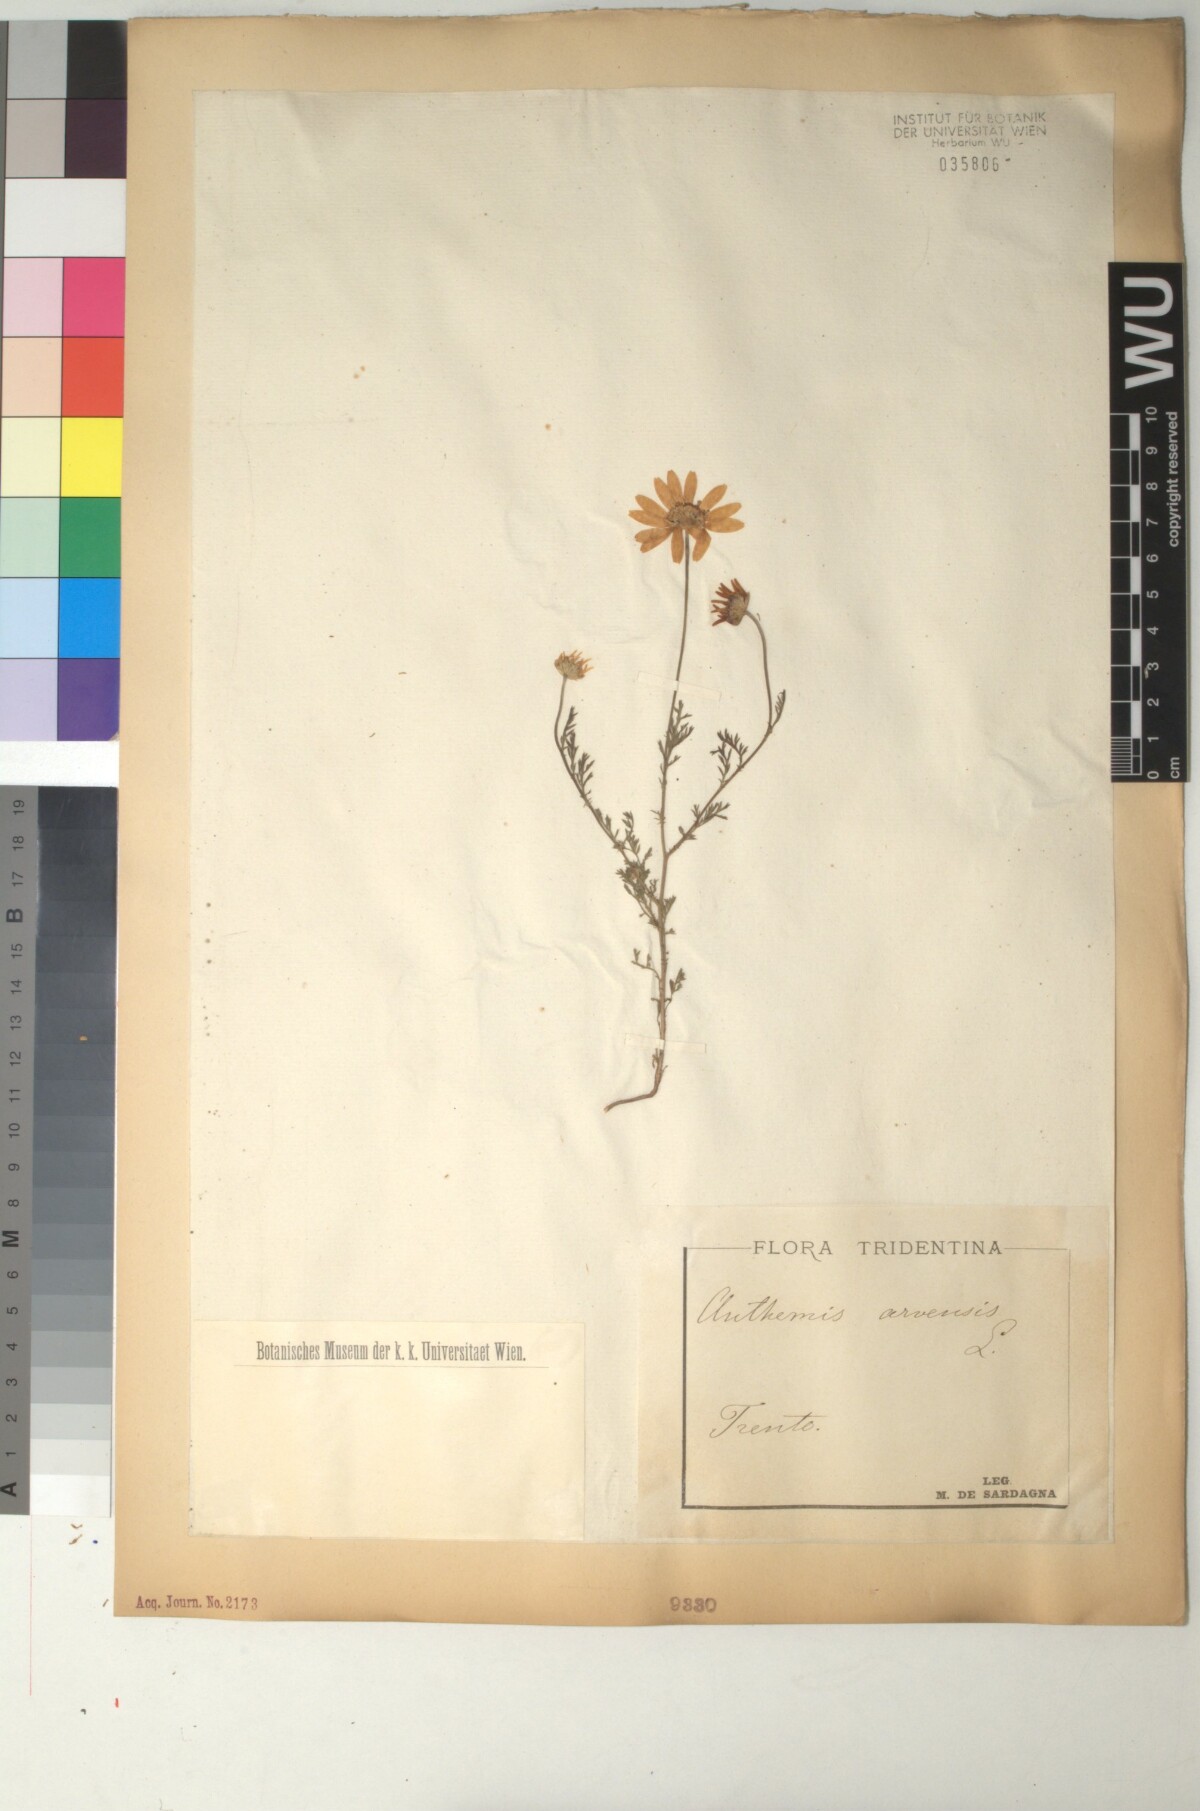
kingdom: Plantae
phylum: Tracheophyta
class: Magnoliopsida
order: Asterales
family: Asteraceae
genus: Anthemis
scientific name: Anthemis arvensis
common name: Corn chamomile
